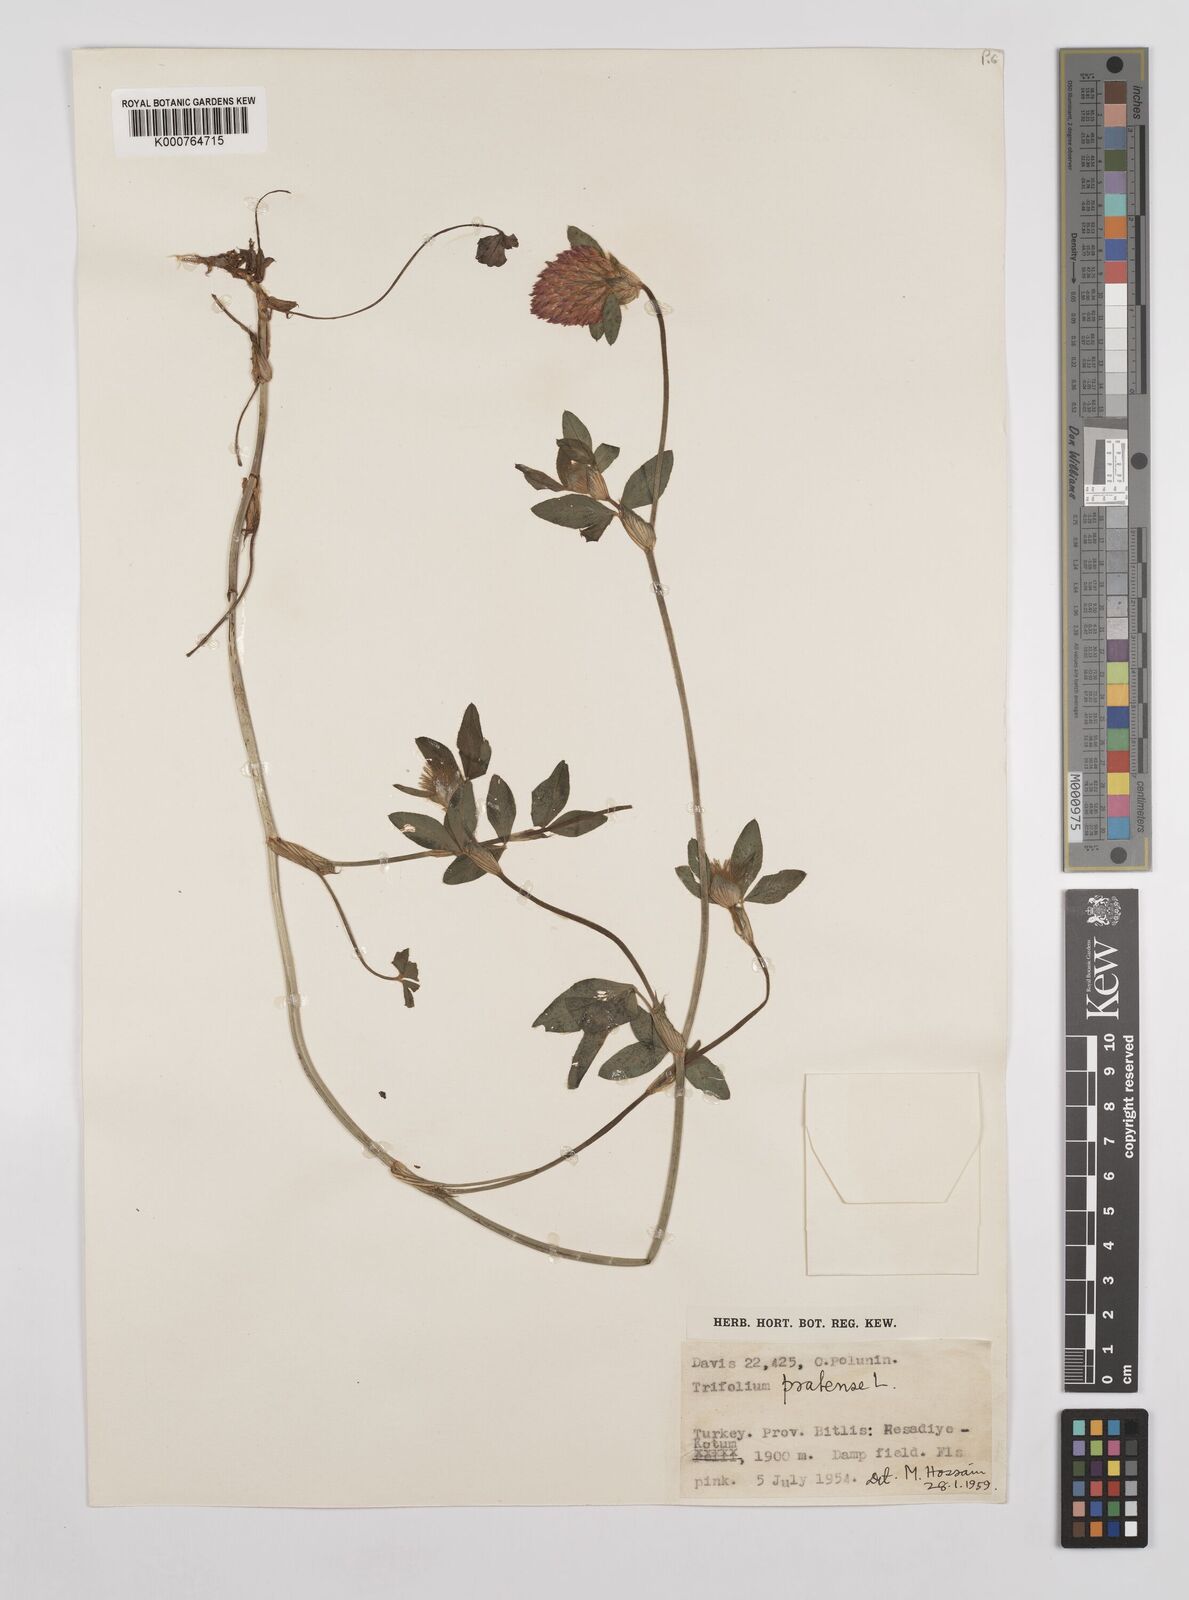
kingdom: Plantae
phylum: Tracheophyta
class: Magnoliopsida
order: Fabales
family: Fabaceae
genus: Trifolium
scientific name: Trifolium pratense
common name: Red clover
